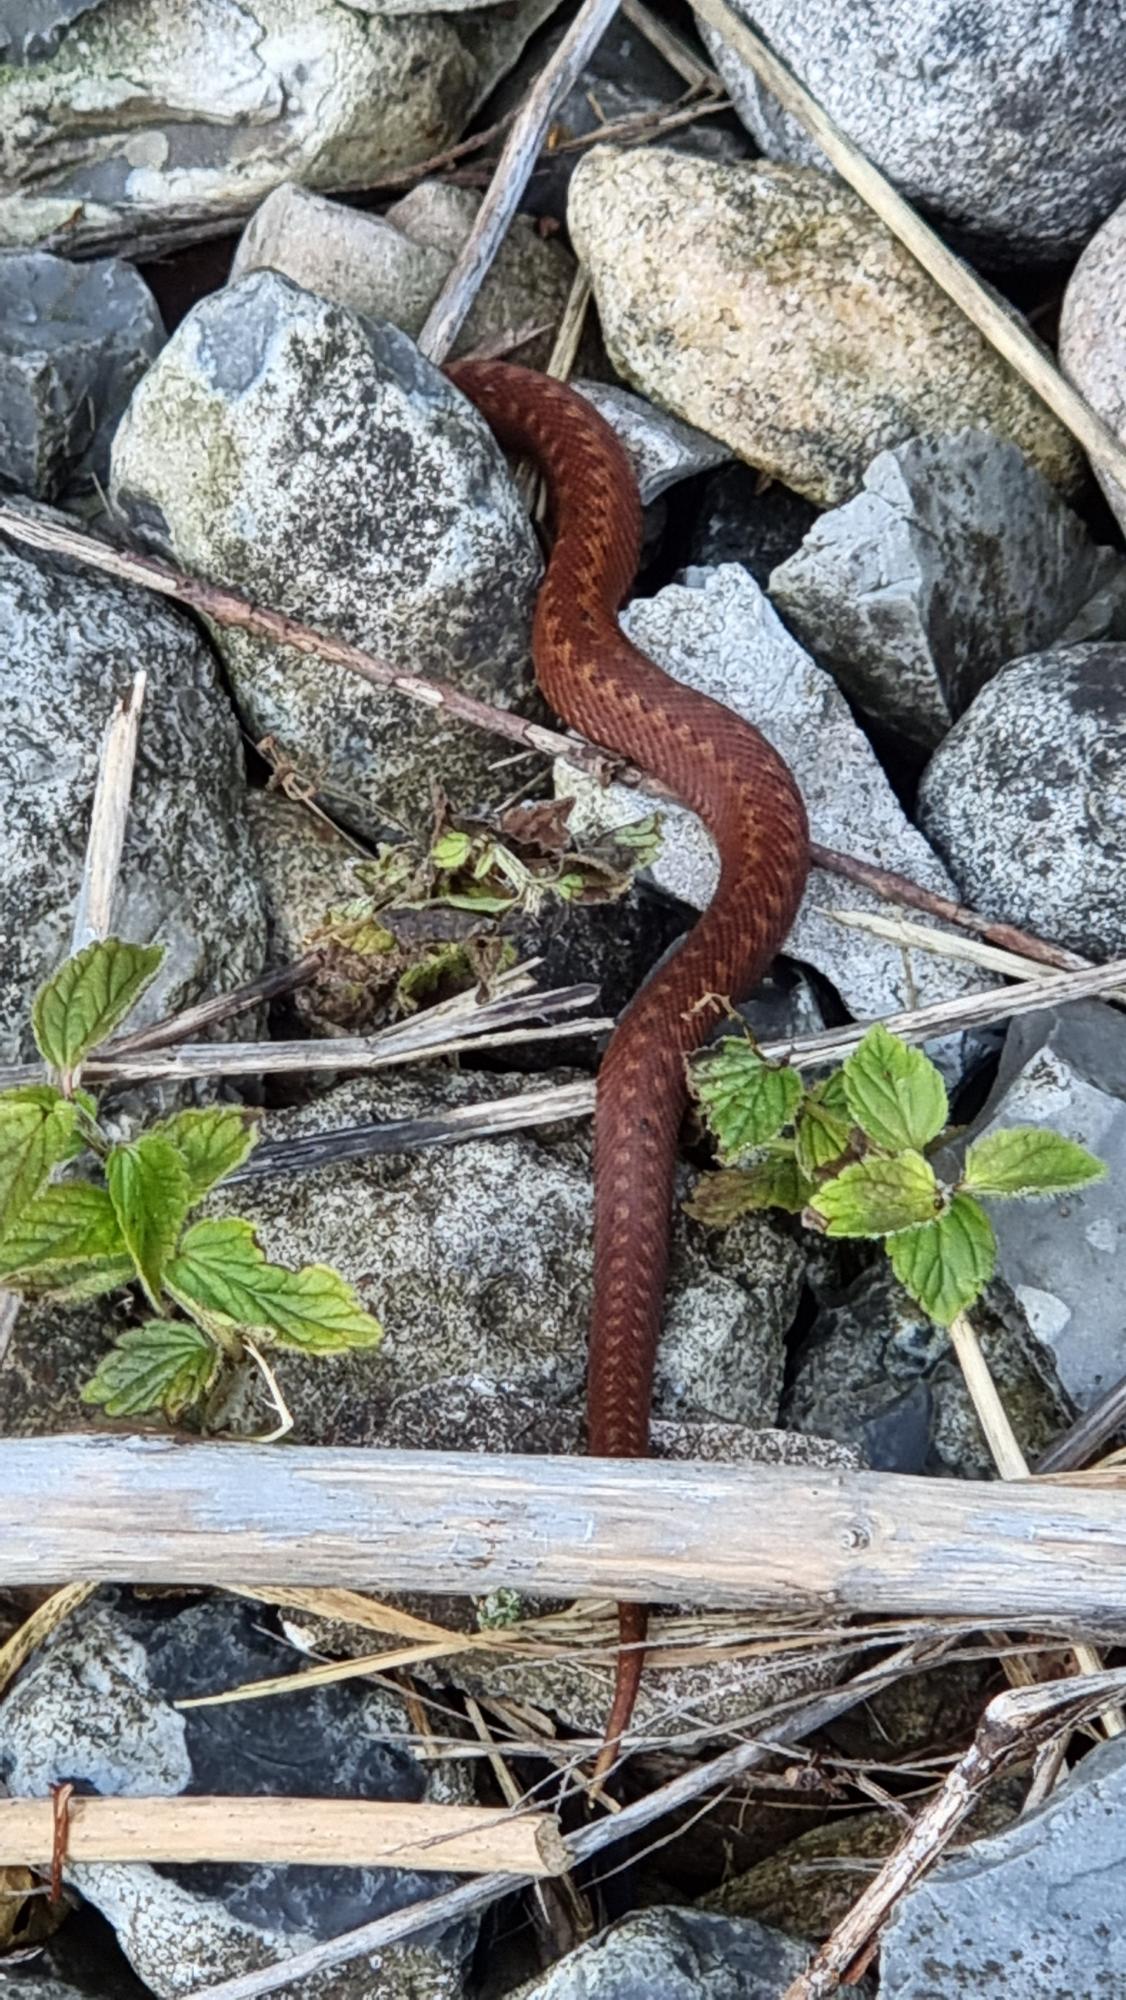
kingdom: Animalia
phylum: Chordata
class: Squamata
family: Viperidae
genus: Vipera
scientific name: Vipera berus
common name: Hugorm
